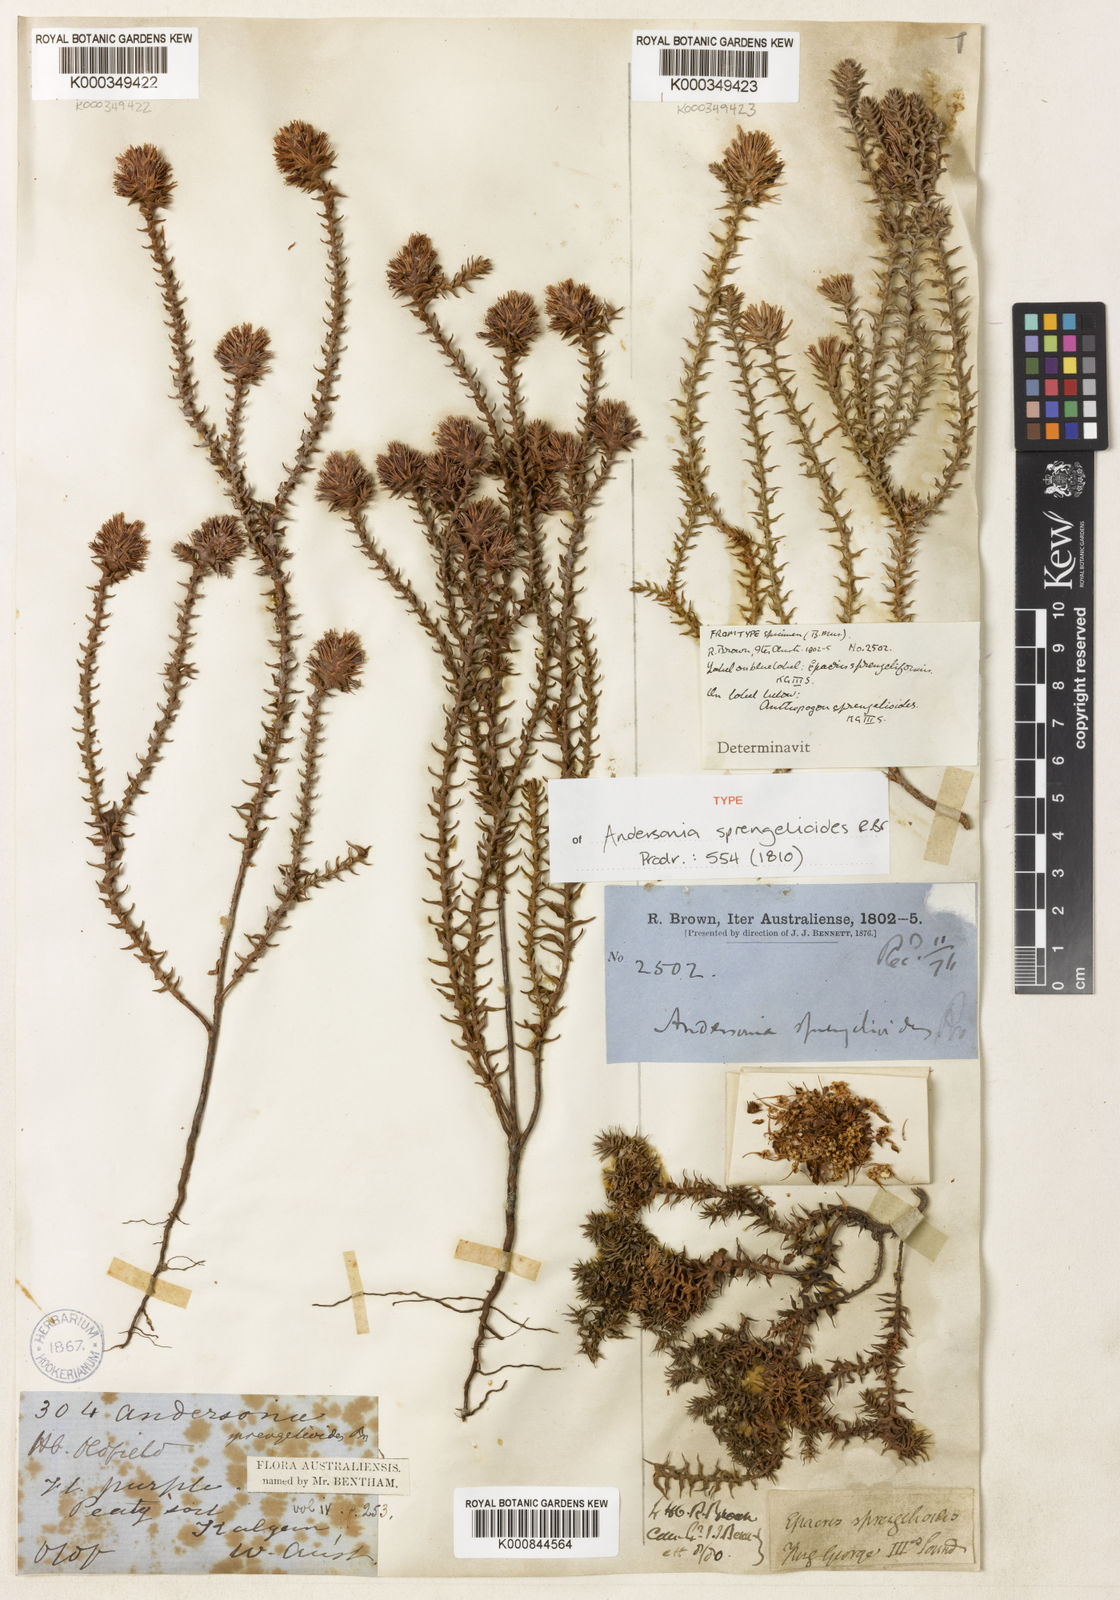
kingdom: Plantae
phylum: Tracheophyta
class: Magnoliopsida
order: Ericales
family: Ericaceae
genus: Andersonia
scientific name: Andersonia sprengelioides
